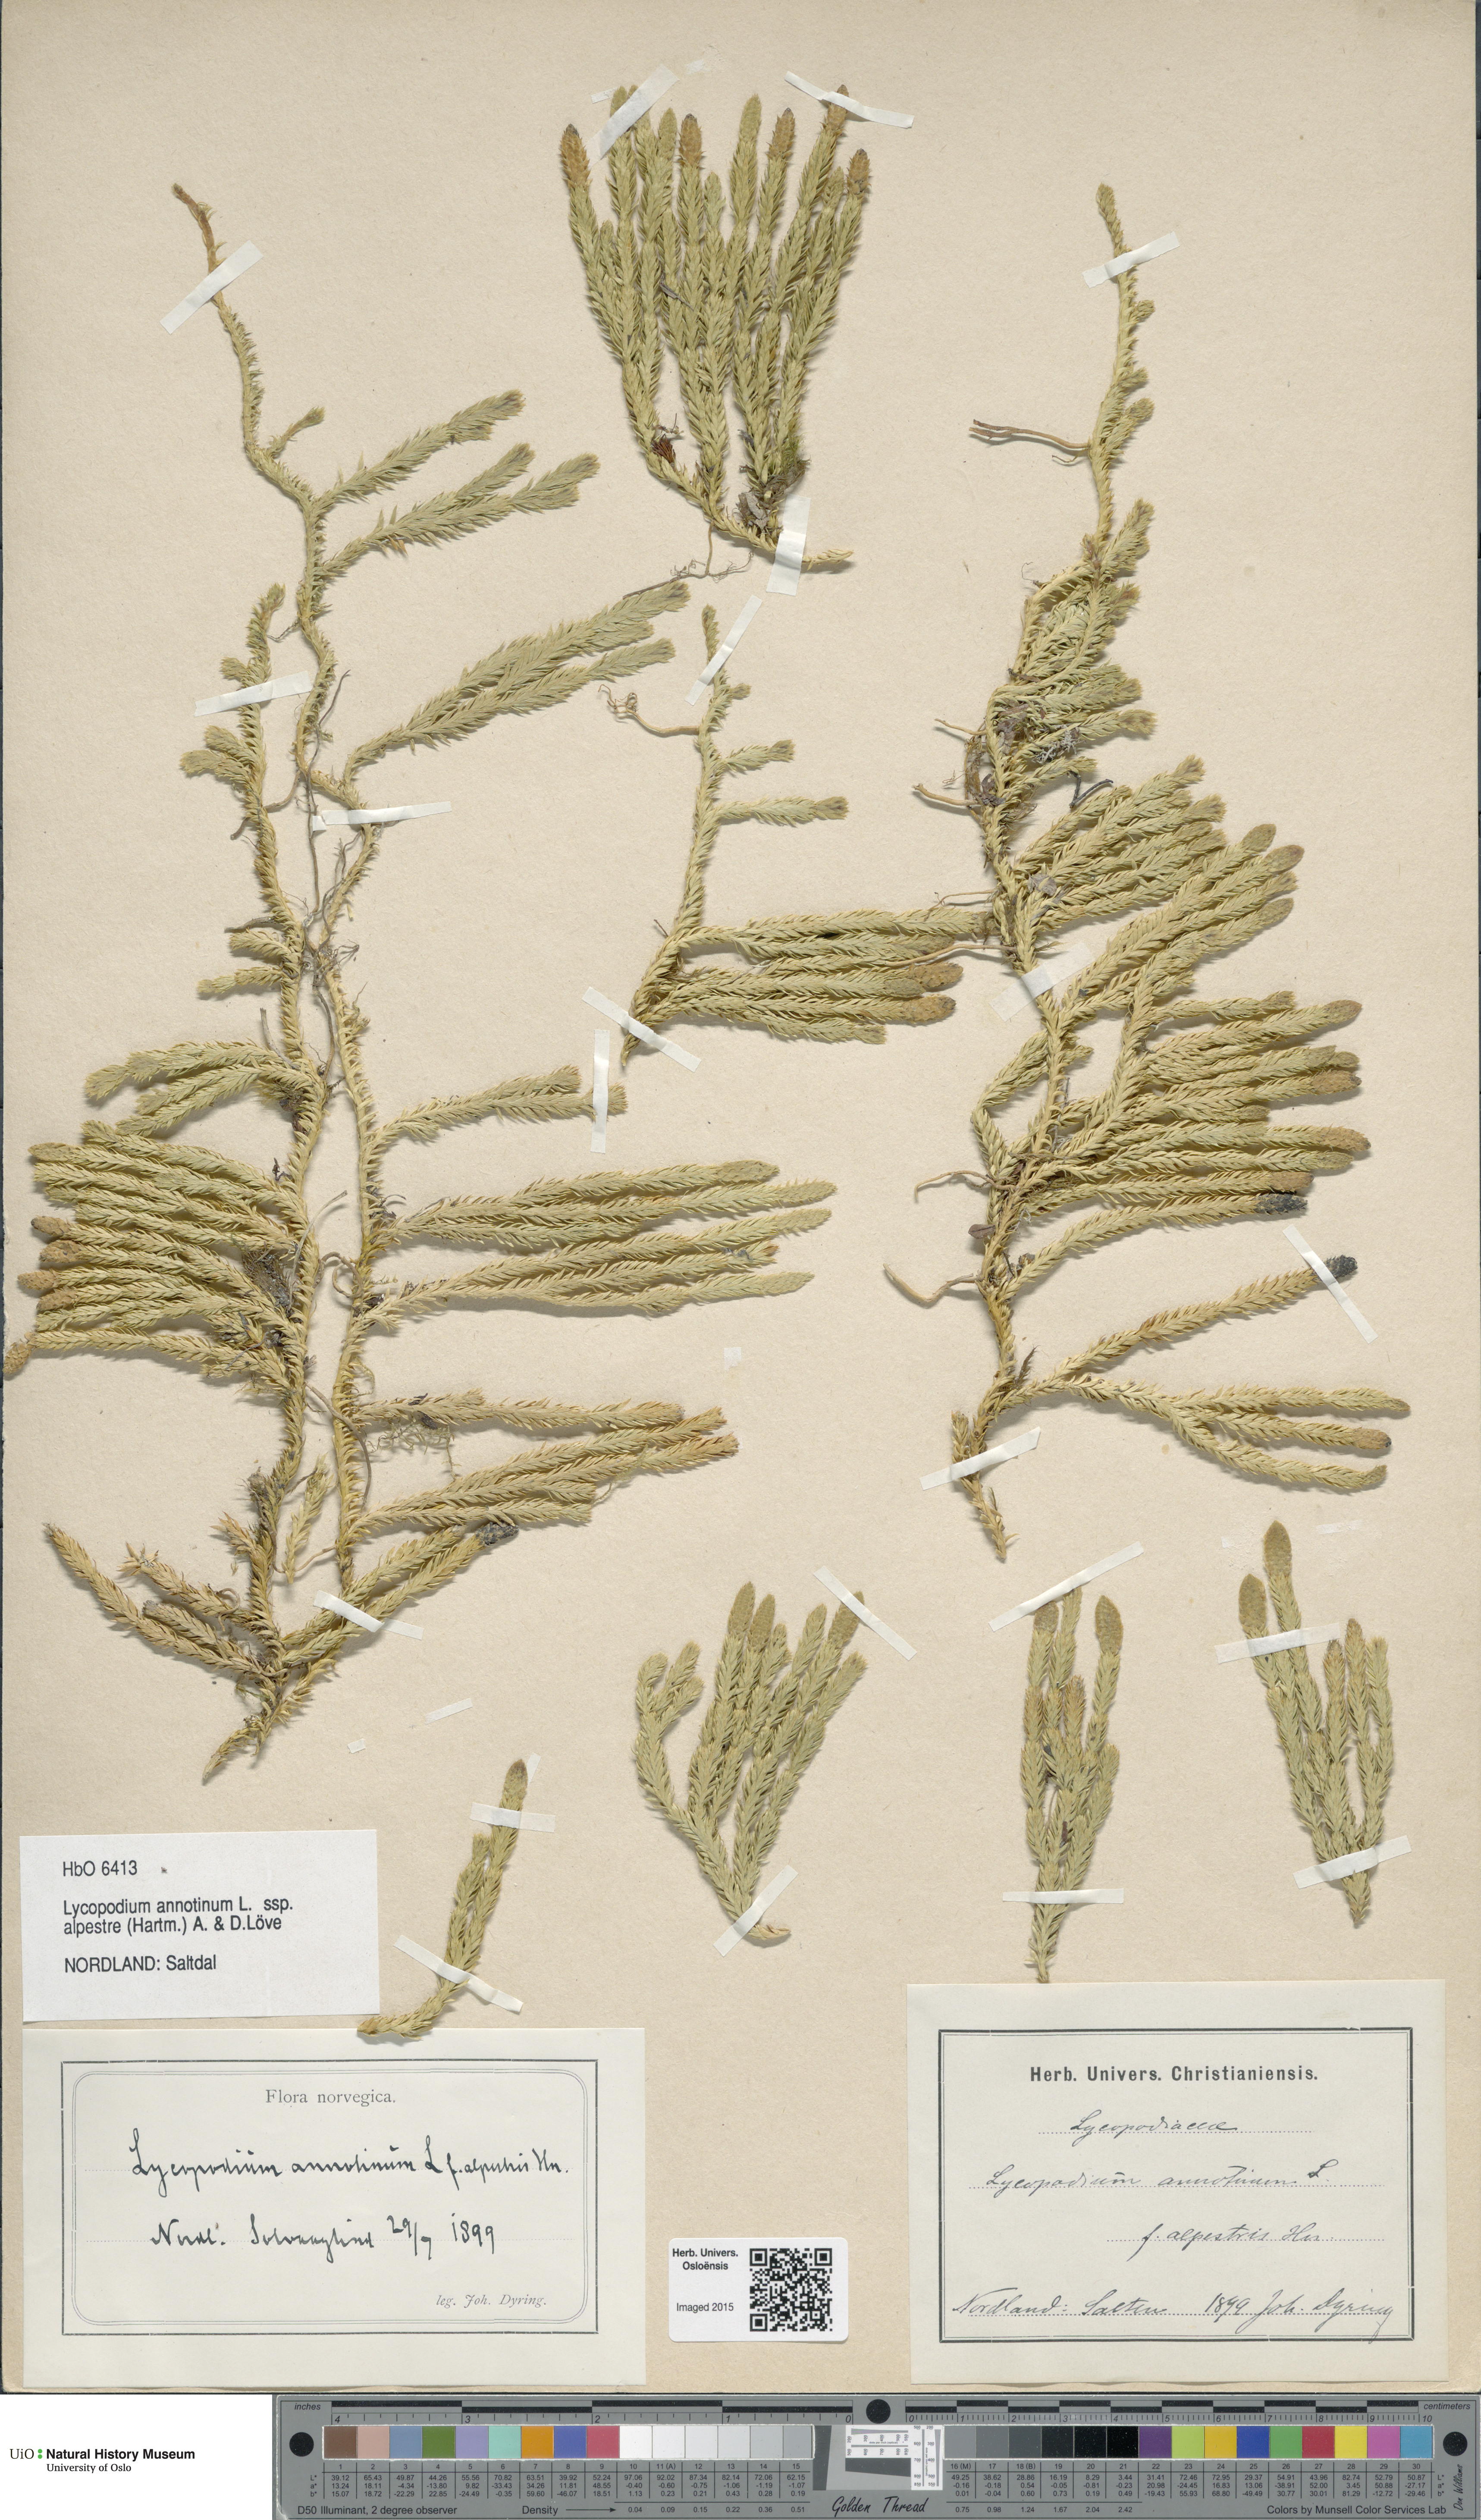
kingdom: Plantae
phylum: Tracheophyta
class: Lycopodiopsida
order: Lycopodiales
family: Lycopodiaceae
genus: Spinulum
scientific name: Spinulum annotinum
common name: Interrupted club-moss
